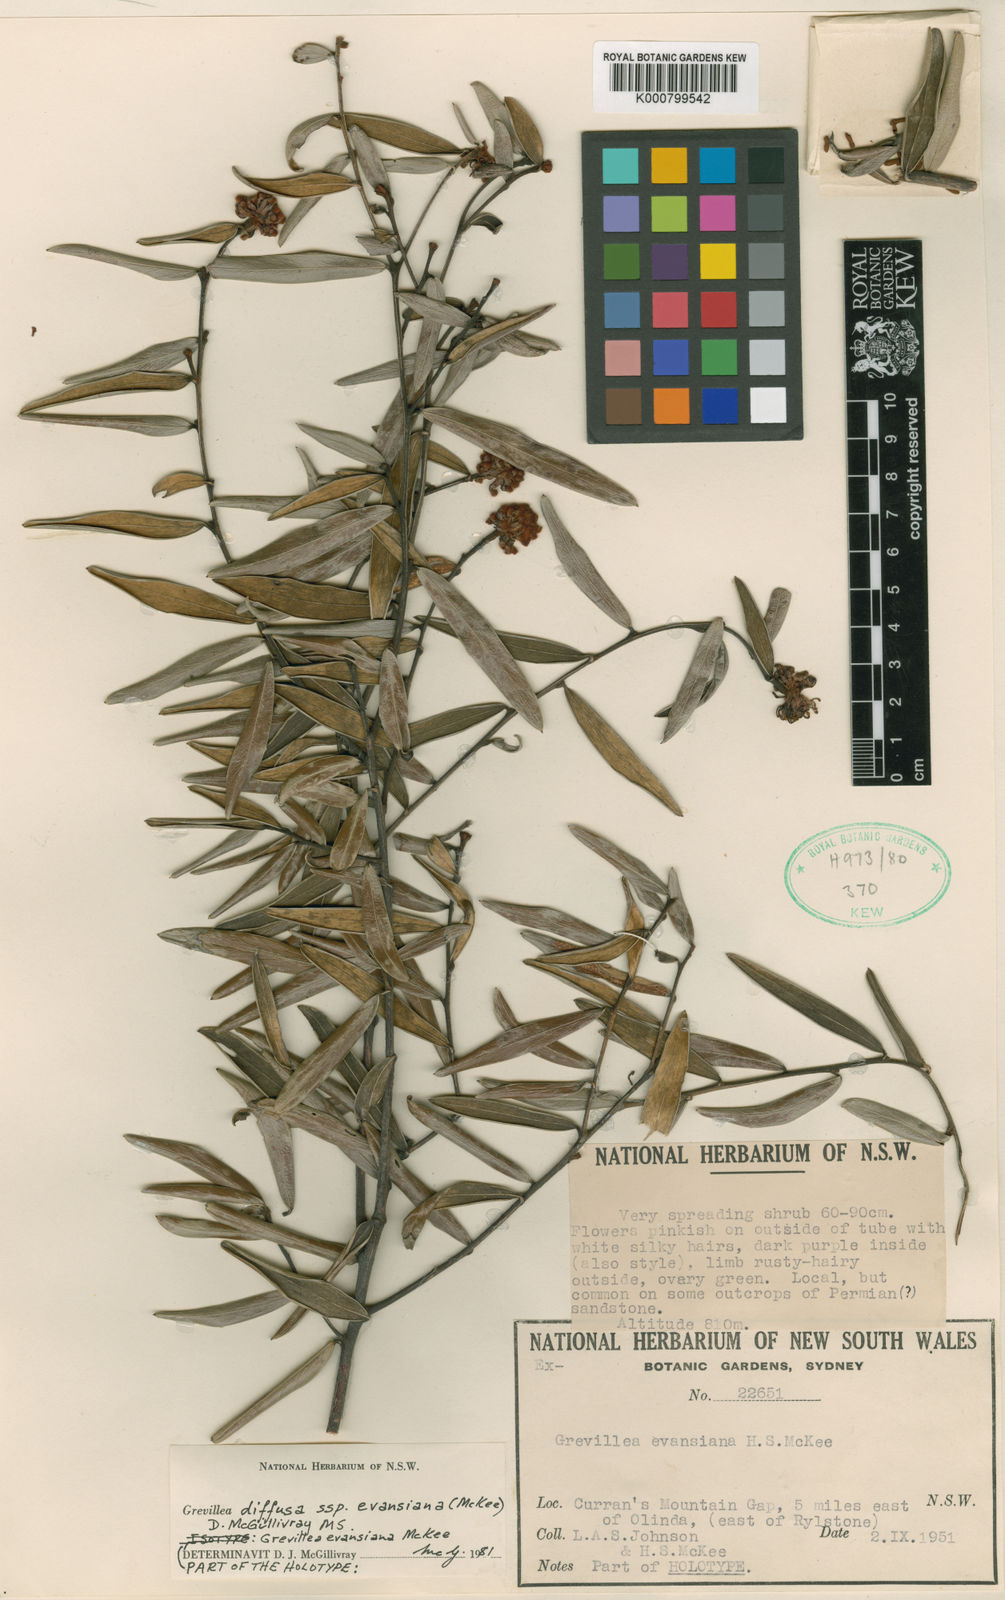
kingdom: Plantae
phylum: Tracheophyta
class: Magnoliopsida
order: Proteales
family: Proteaceae
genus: Grevillea
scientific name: Grevillea evansiana
